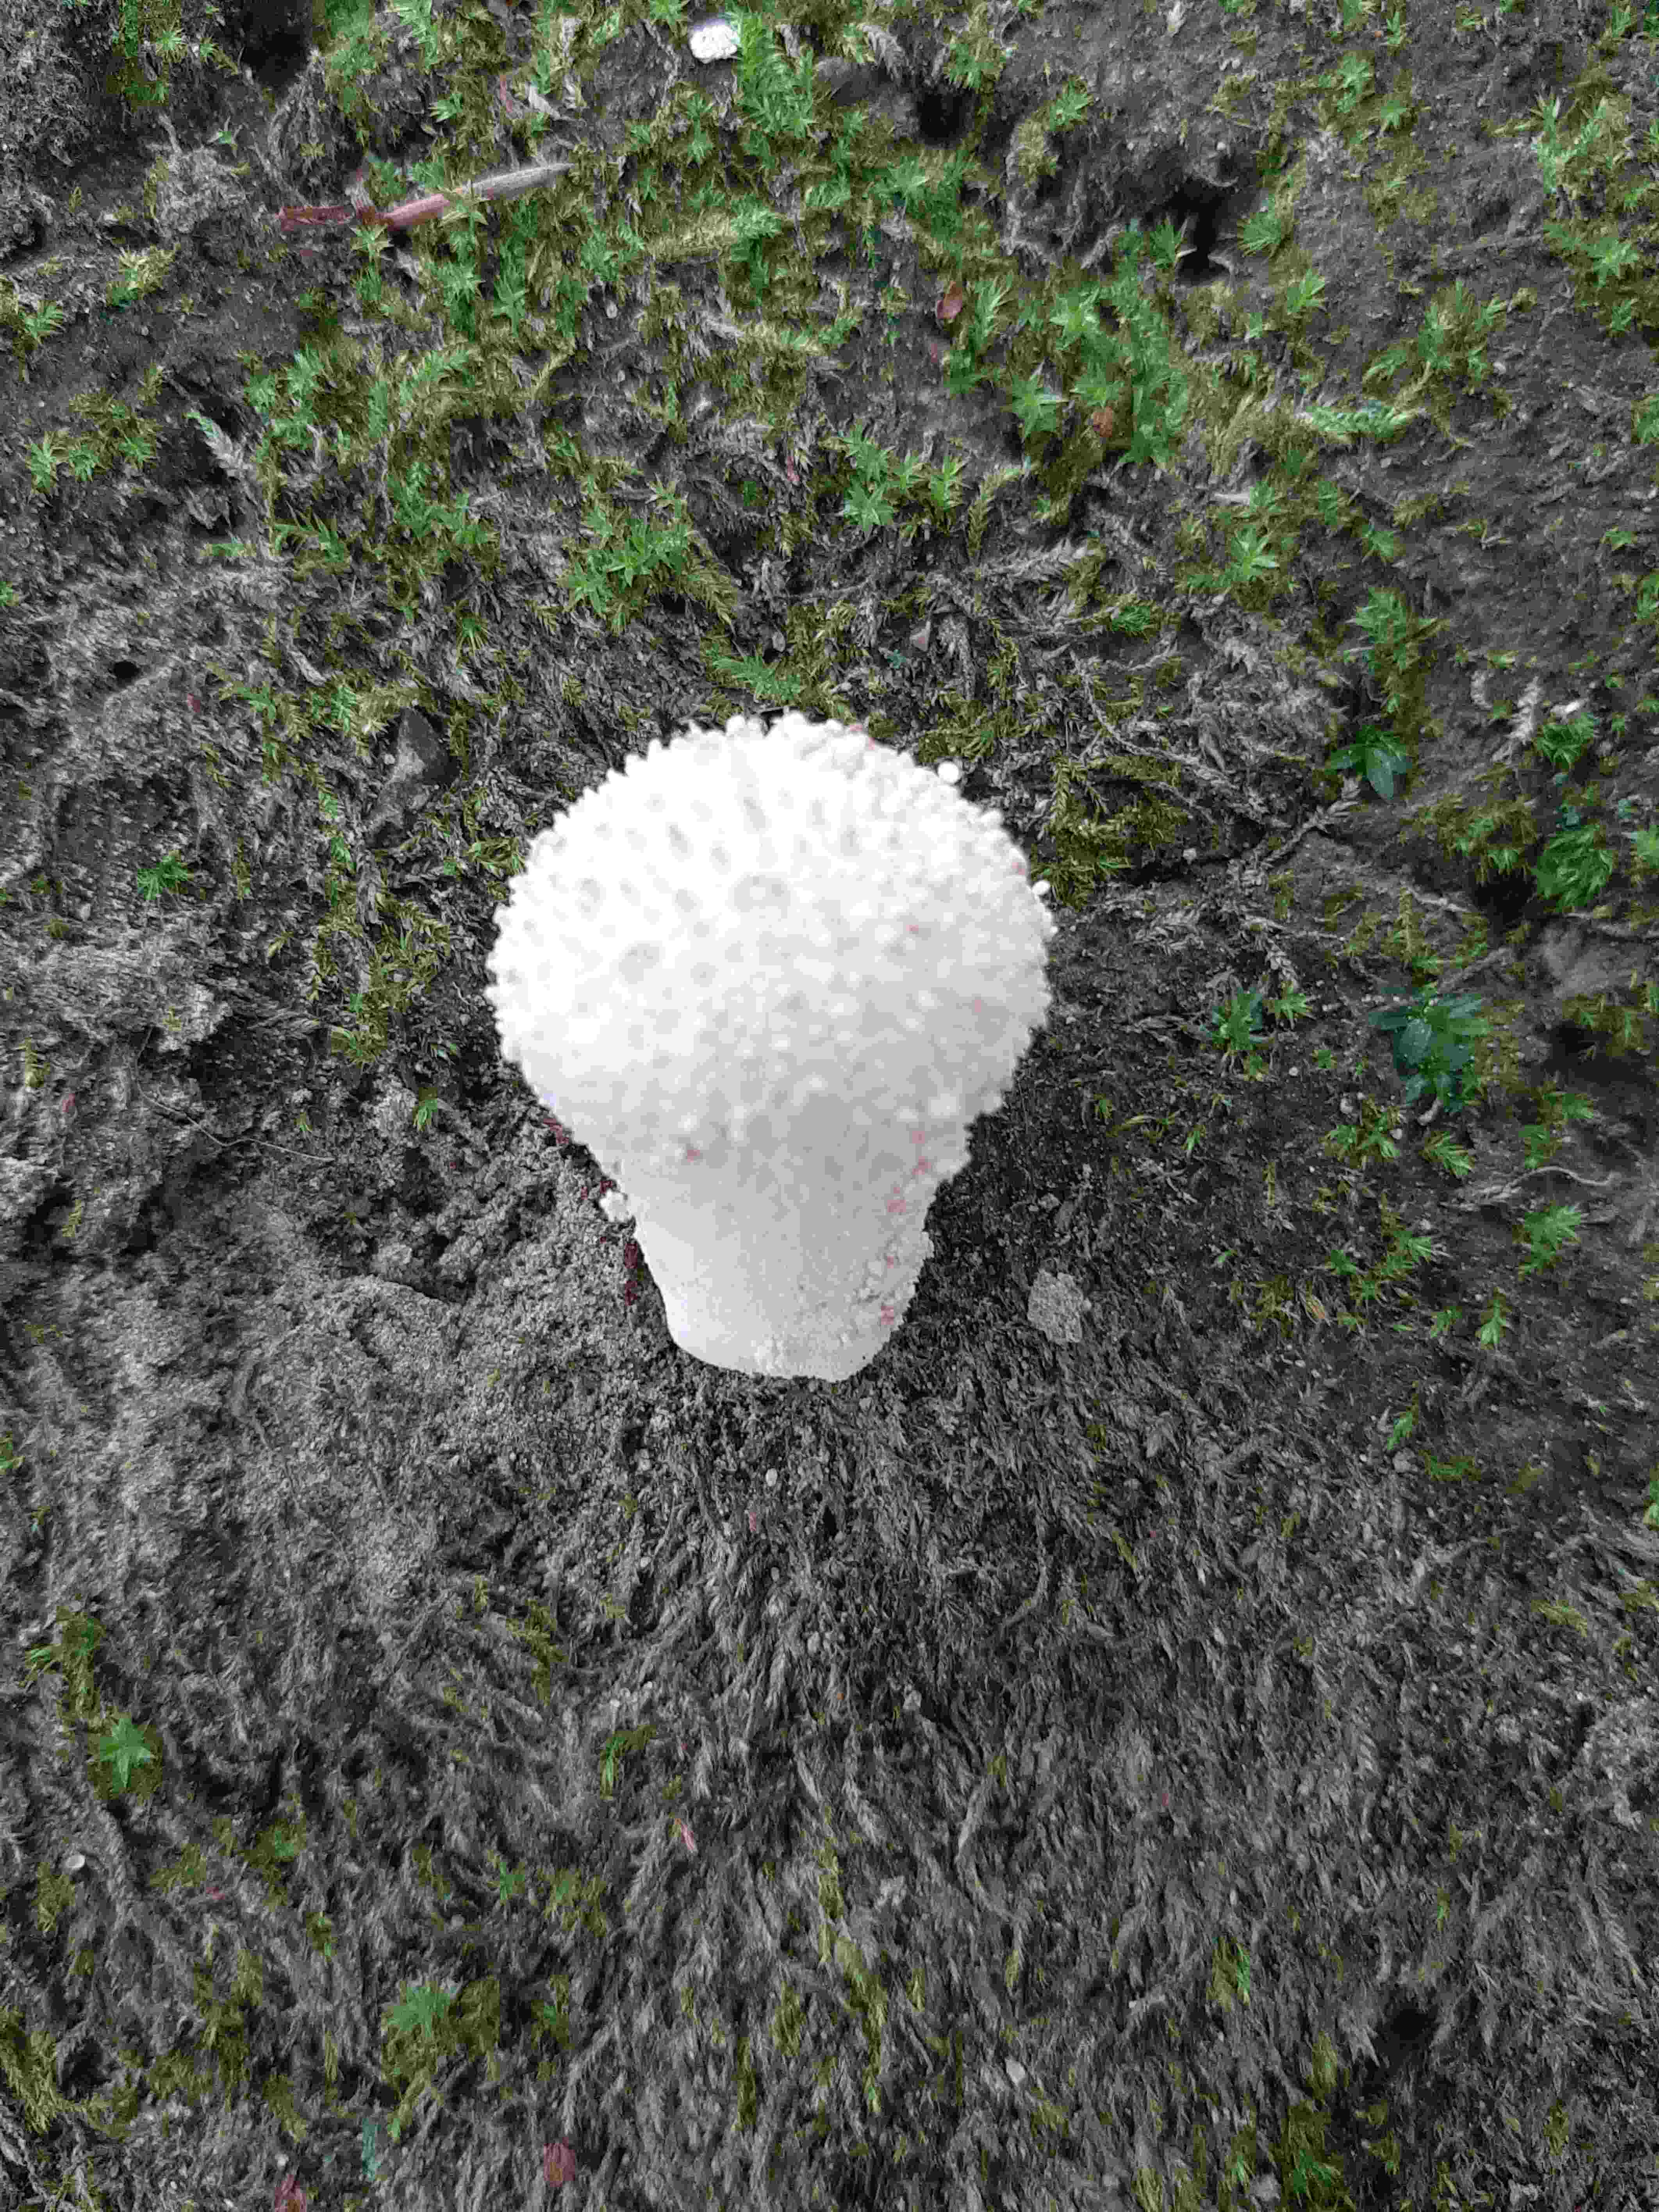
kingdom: Fungi
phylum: Basidiomycota
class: Agaricomycetes
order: Agaricales
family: Lycoperdaceae
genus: Lycoperdon
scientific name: Lycoperdon perlatum
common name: krystal-støvbold
